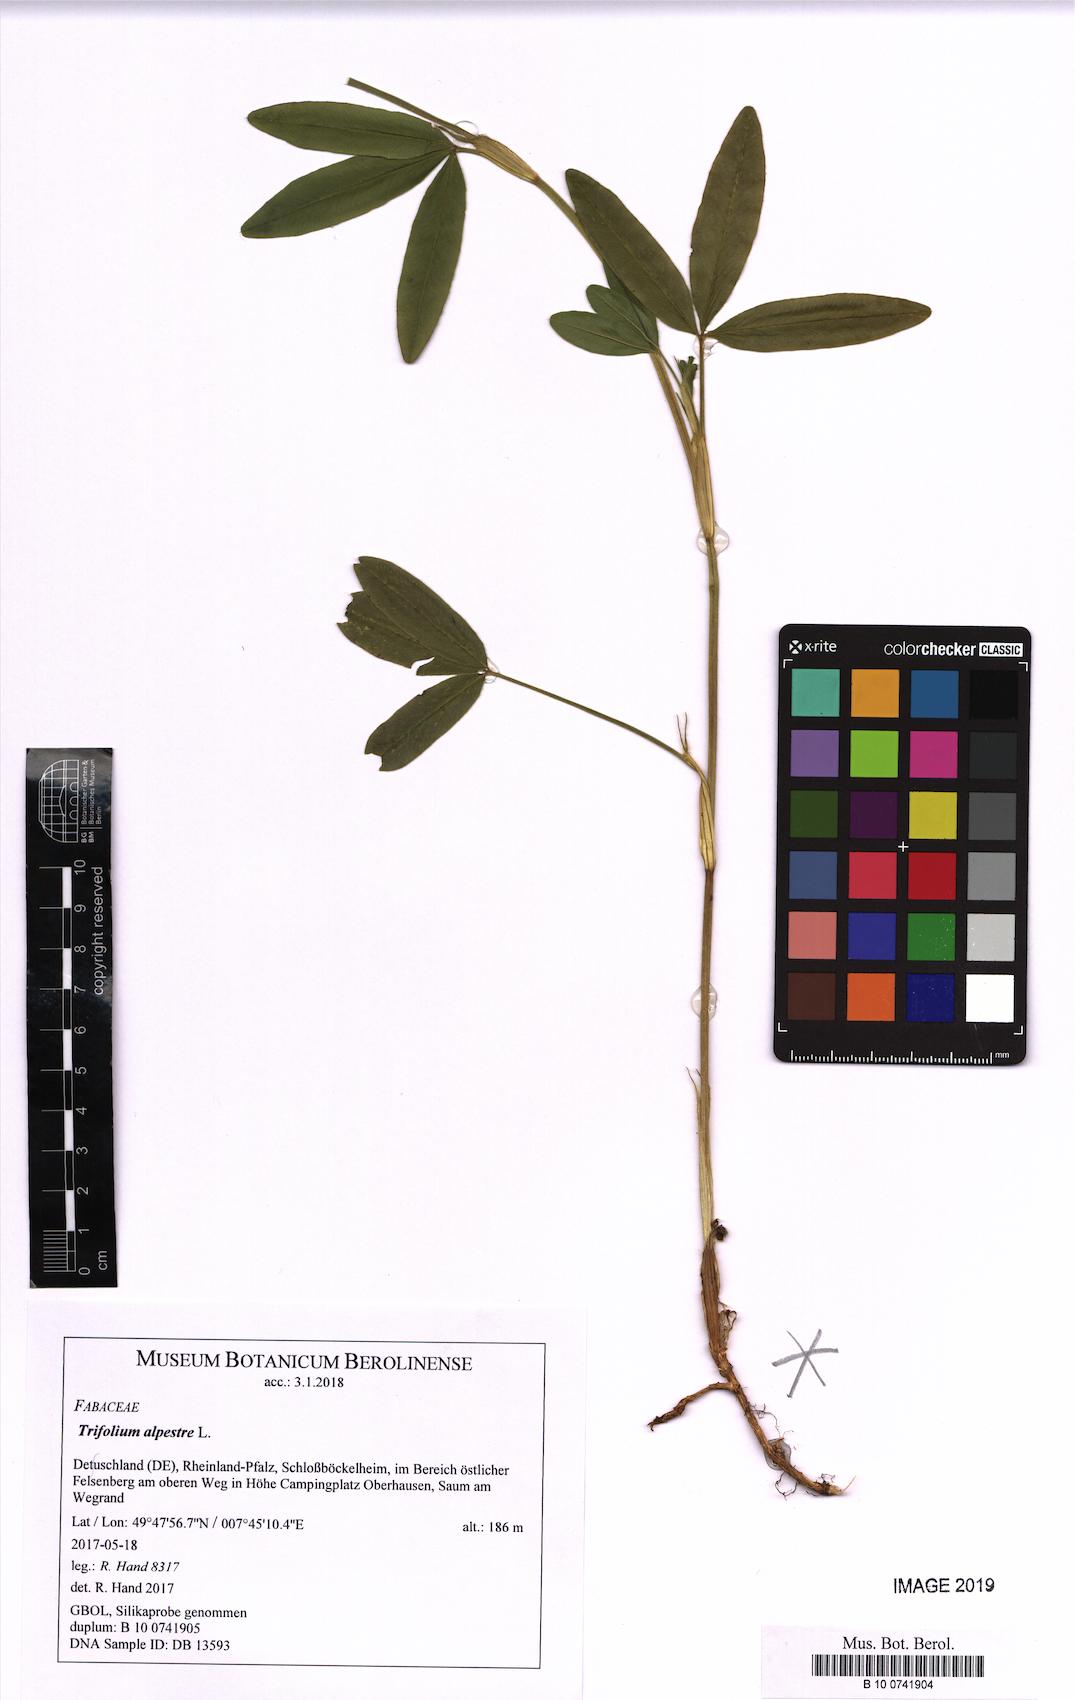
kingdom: Plantae
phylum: Tracheophyta
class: Magnoliopsida
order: Fabales
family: Fabaceae
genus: Trifolium
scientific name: Trifolium alpestre
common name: Owl-head clover
